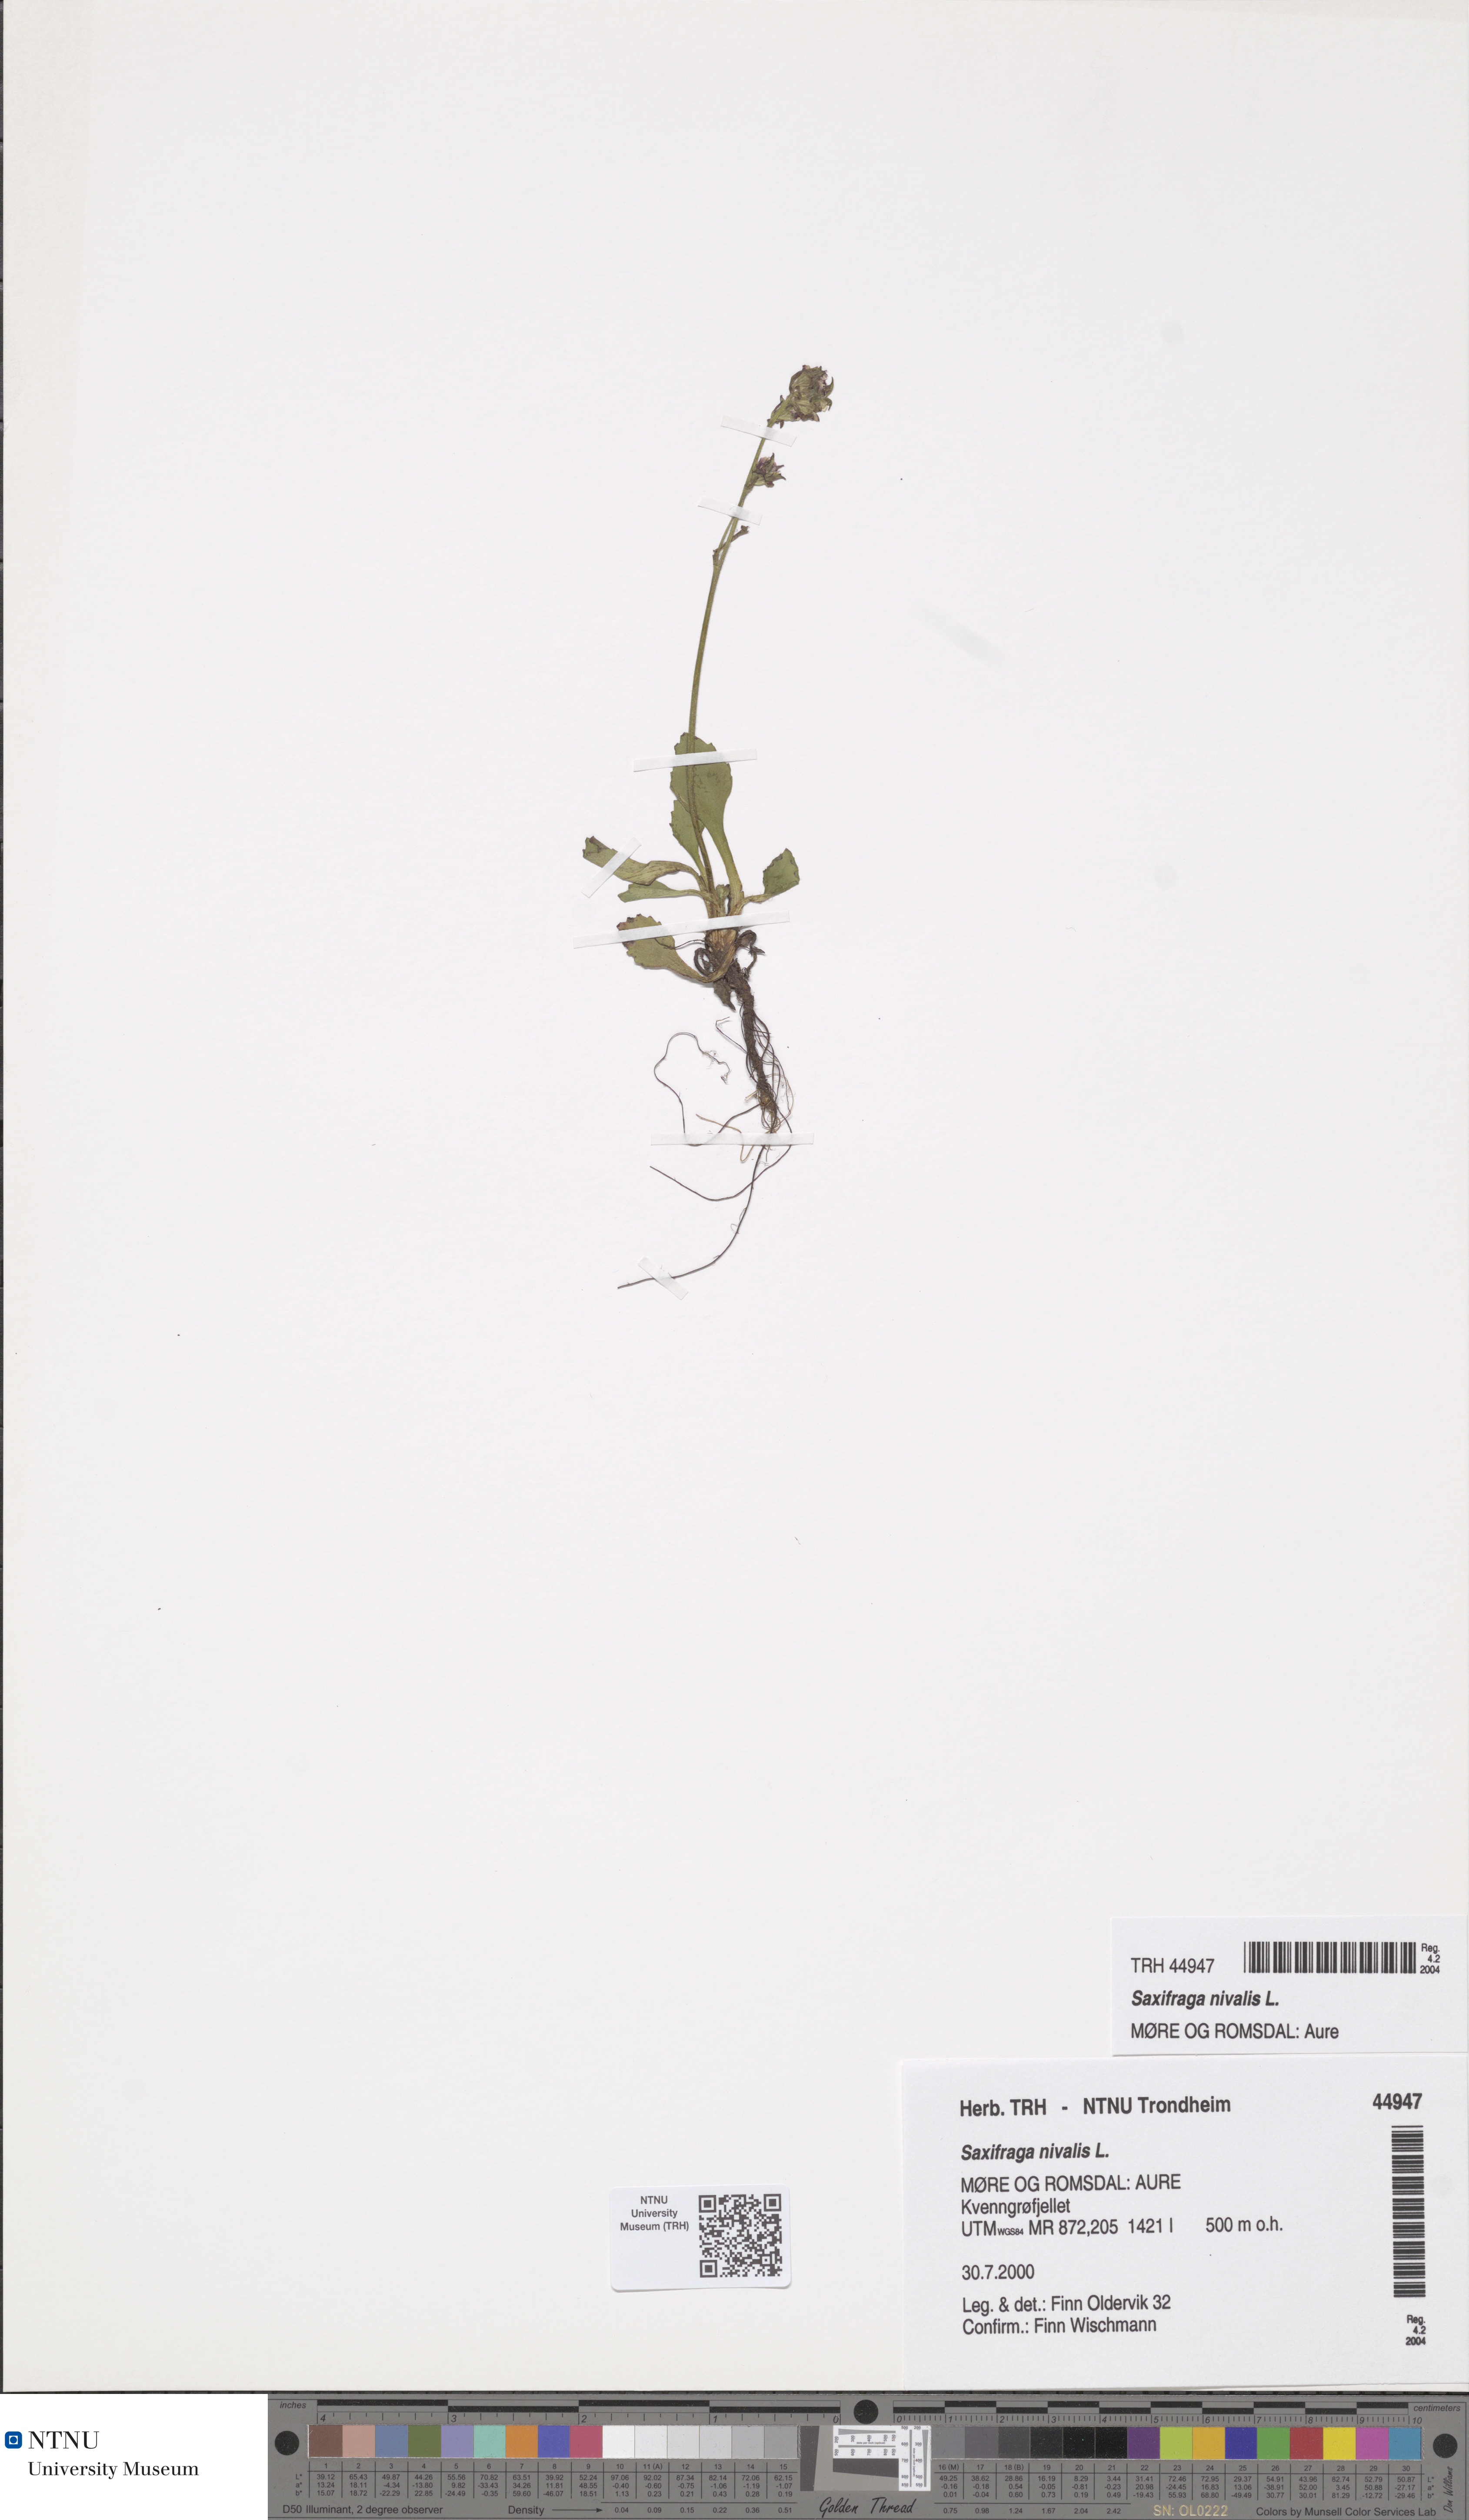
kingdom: Plantae
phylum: Tracheophyta
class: Magnoliopsida
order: Saxifragales
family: Saxifragaceae
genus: Micranthes
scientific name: Micranthes nivalis
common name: Alpine saxifrage
